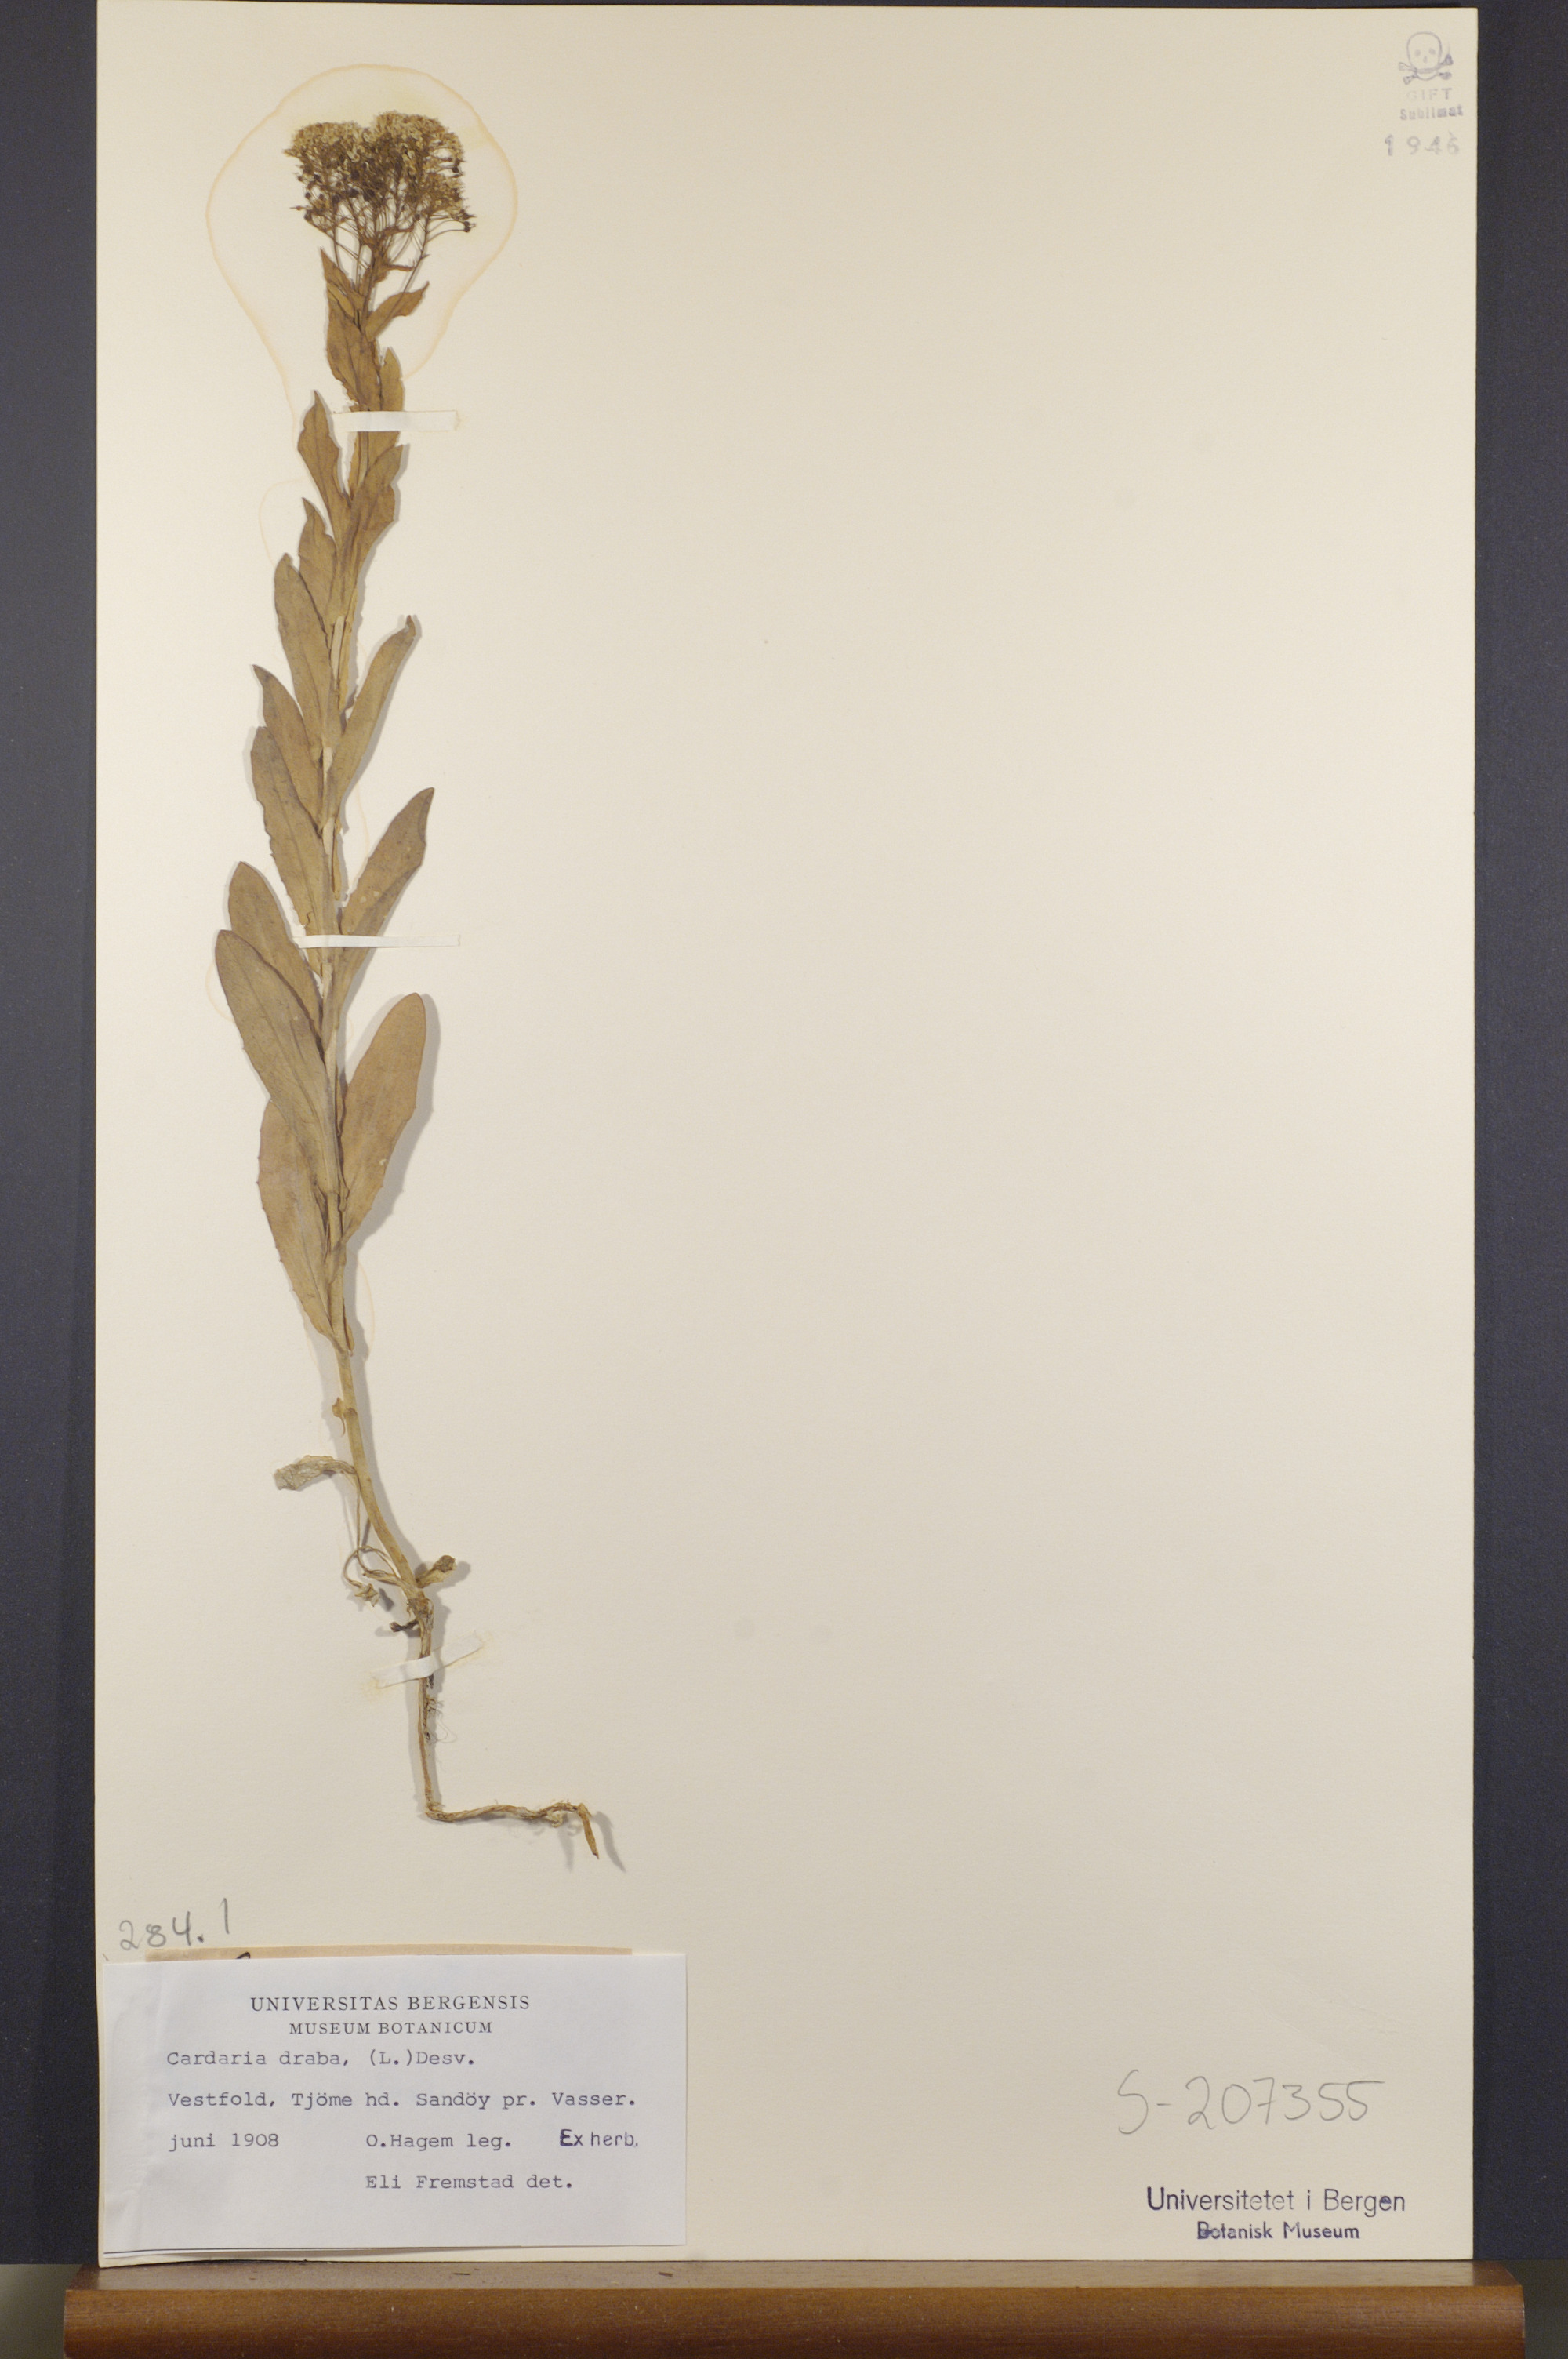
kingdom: Plantae
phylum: Tracheophyta
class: Magnoliopsida
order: Brassicales
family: Brassicaceae
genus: Lepidium
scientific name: Lepidium draba
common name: Hoary cress
